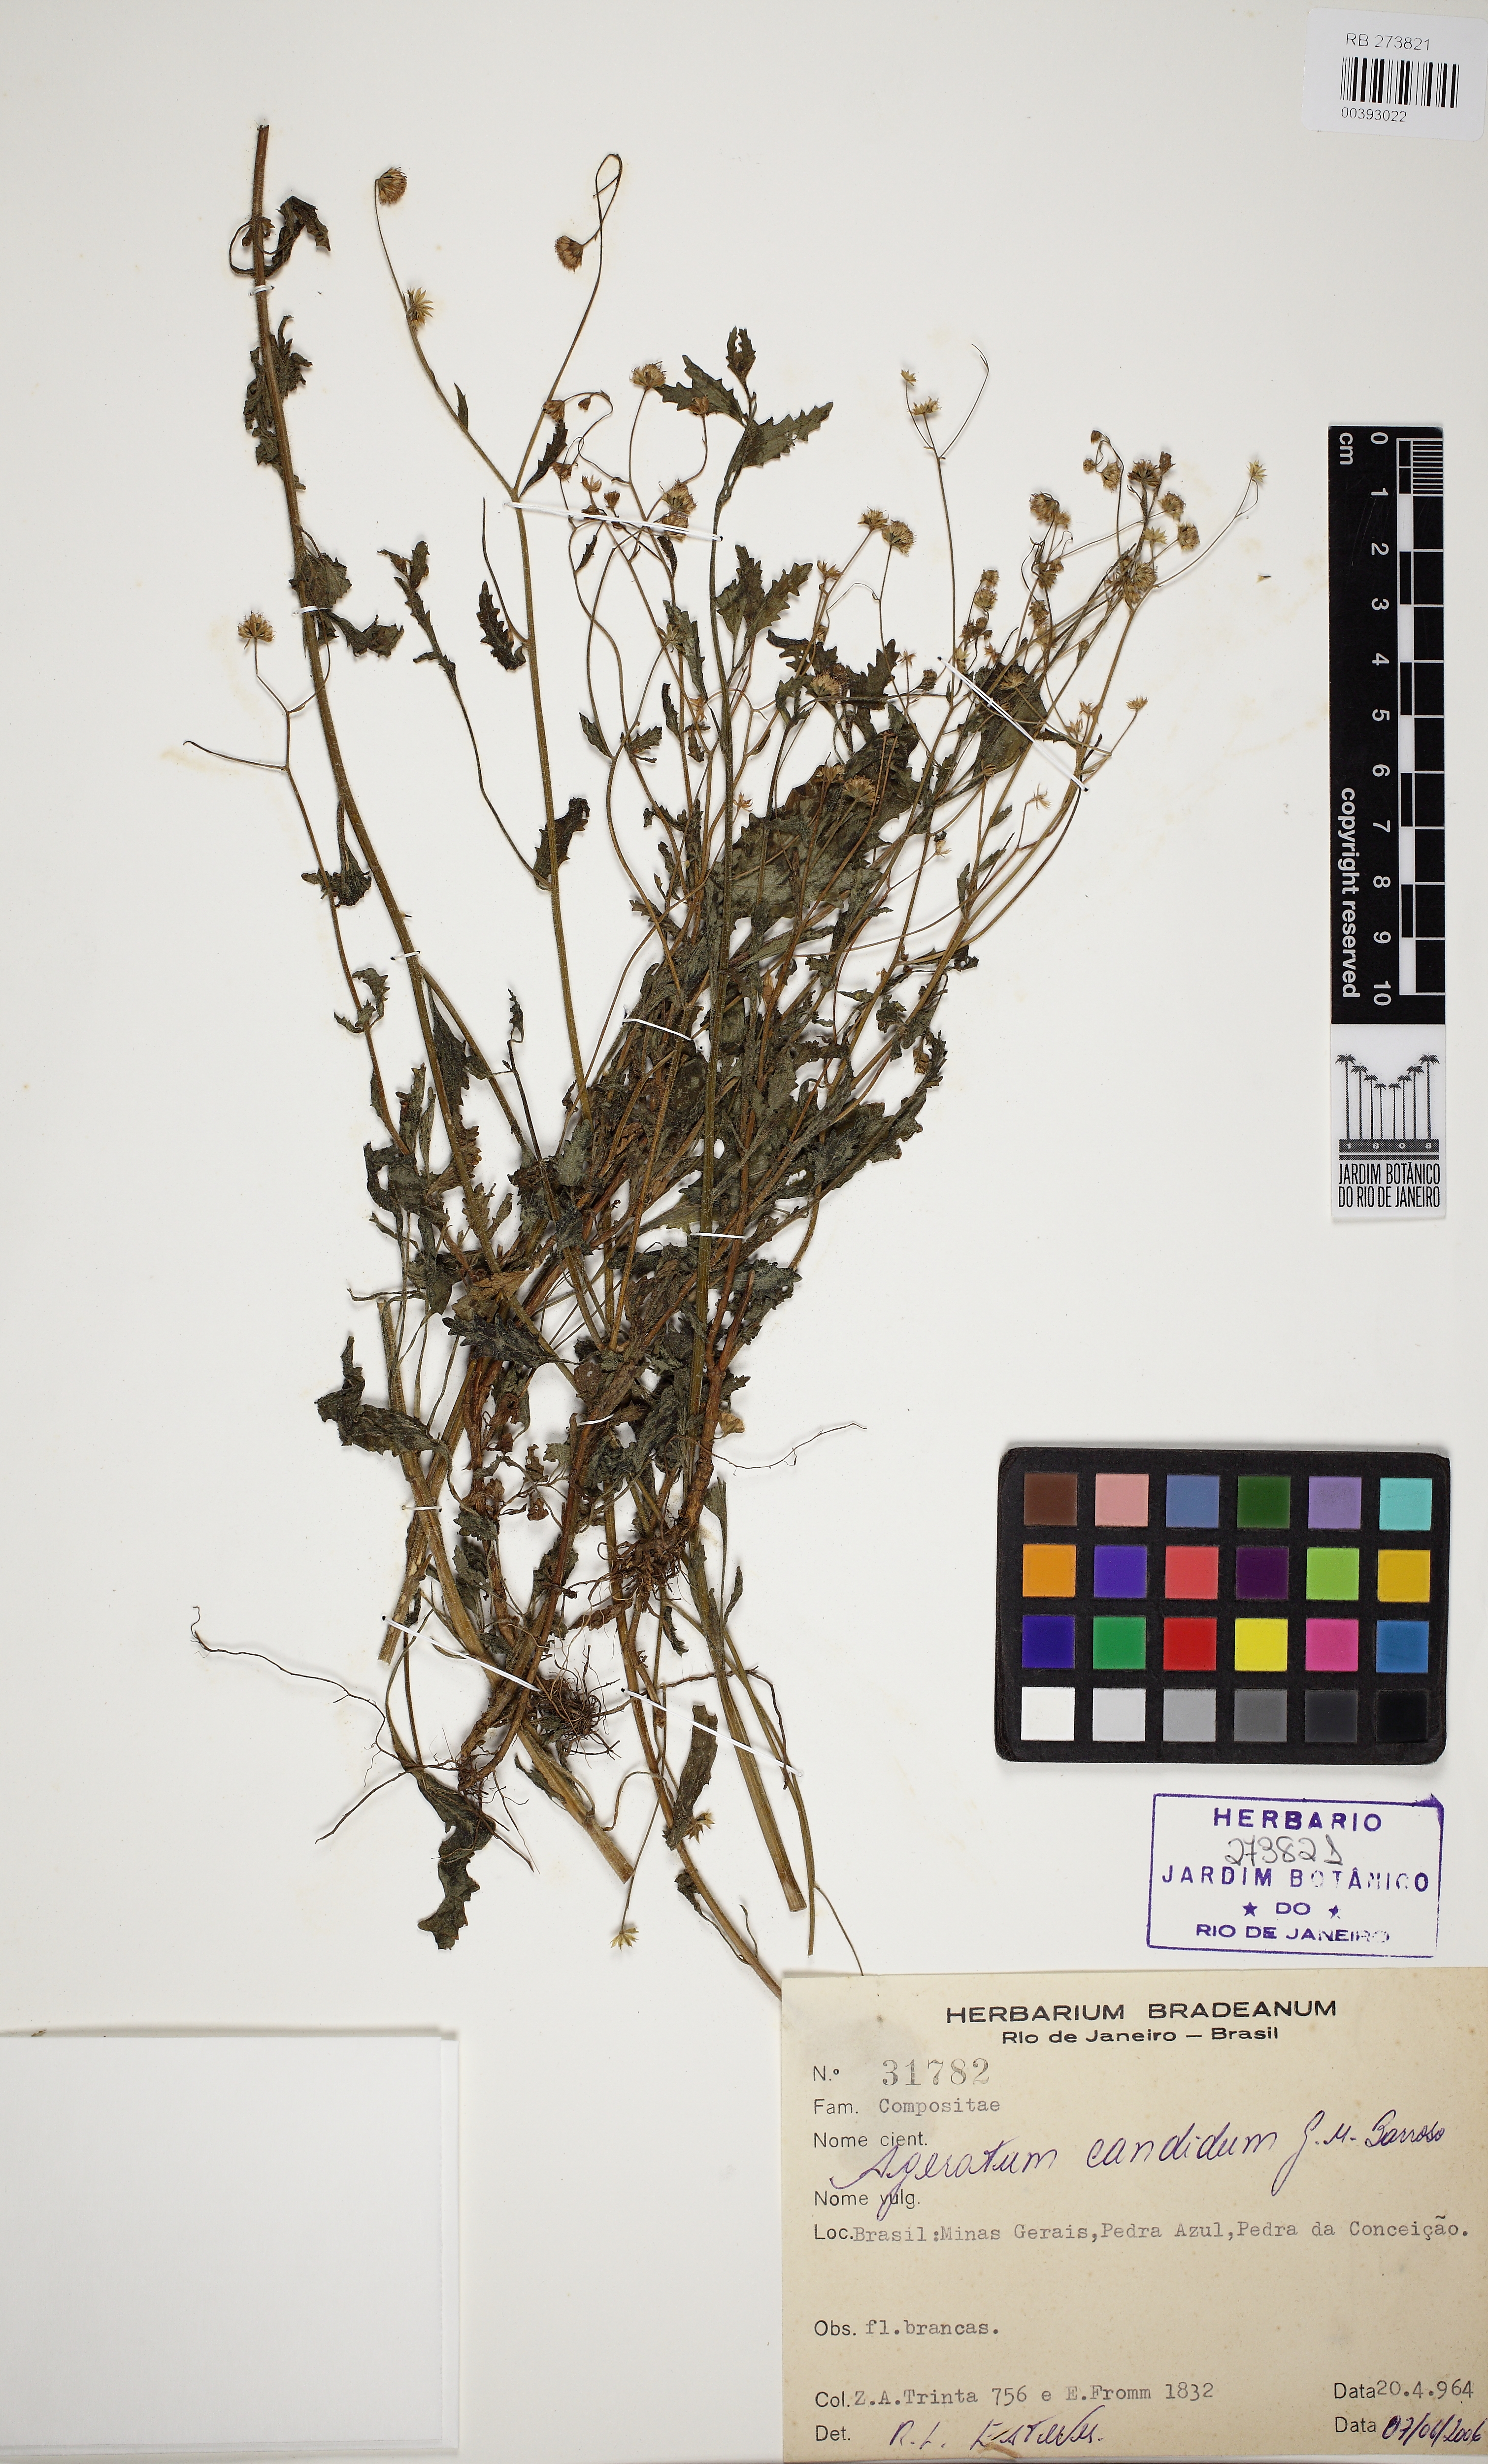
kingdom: Plantae
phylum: Tracheophyta
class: Magnoliopsida
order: Asterales
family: Asteraceae
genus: Ageratum
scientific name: Ageratum candidum
